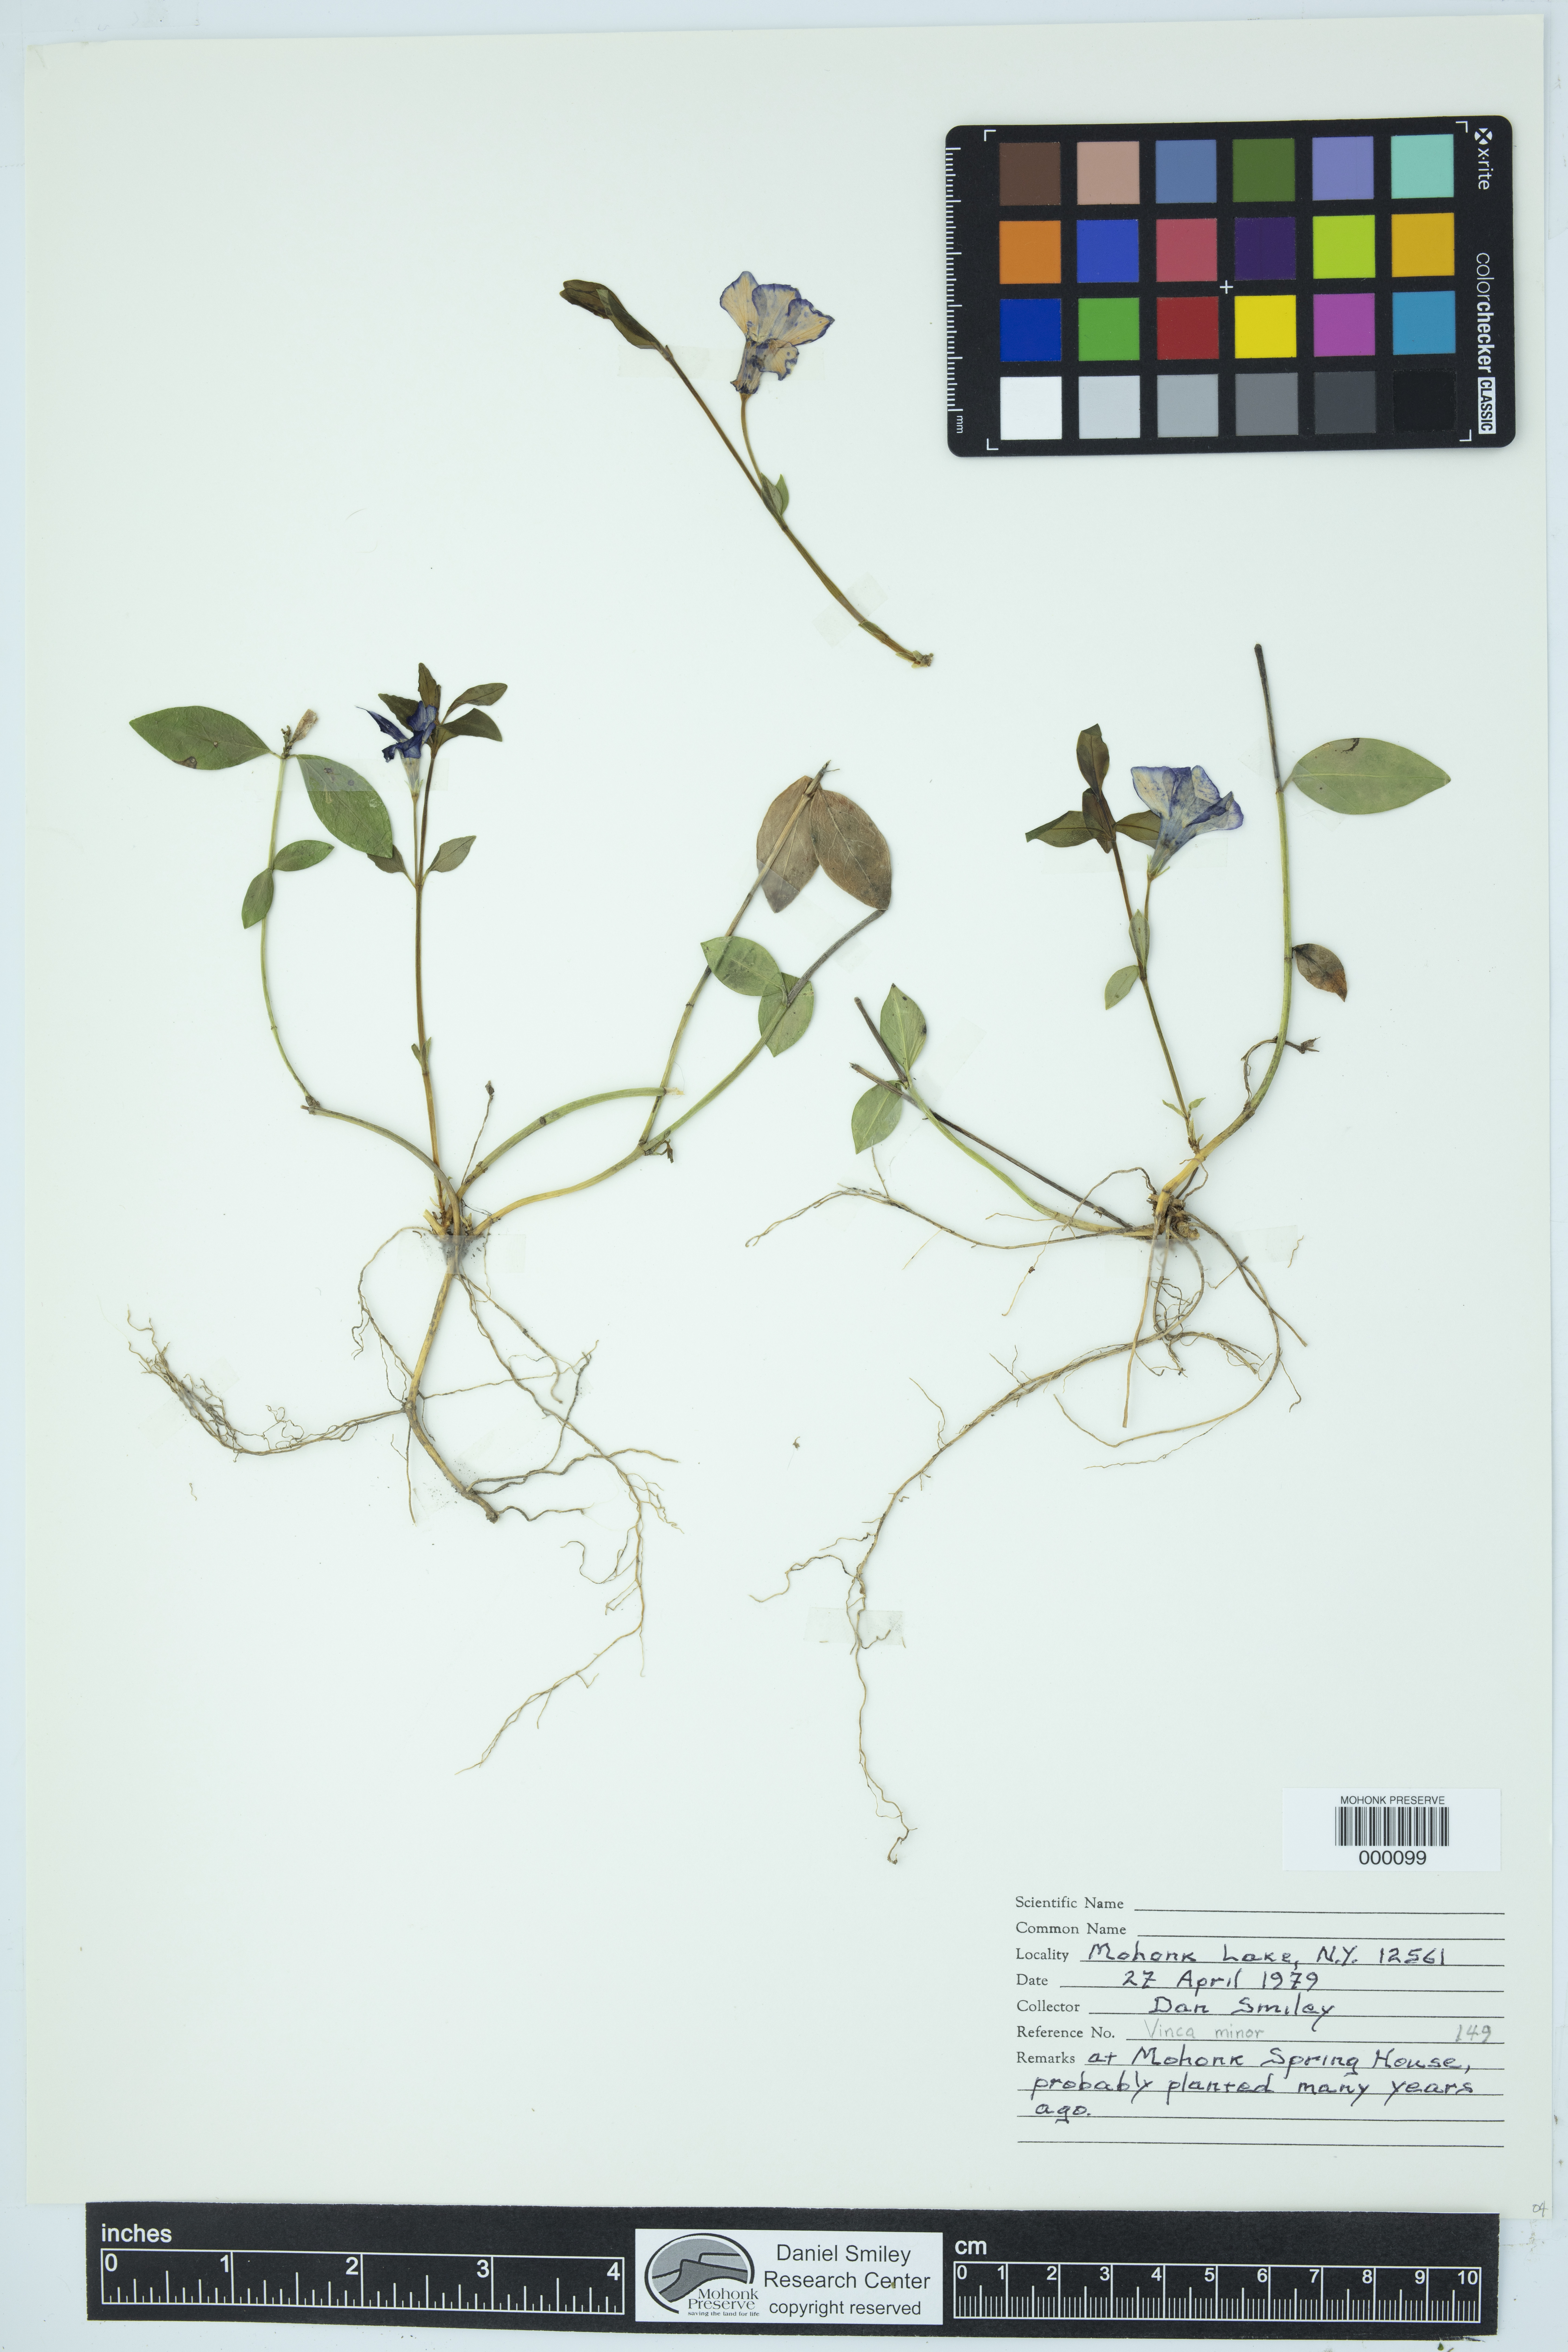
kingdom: Plantae
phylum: Tracheophyta
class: Magnoliopsida
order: Gentianales
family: Apocynaceae
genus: Vinca
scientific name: Vinca minor
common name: Lesser periwinkle
